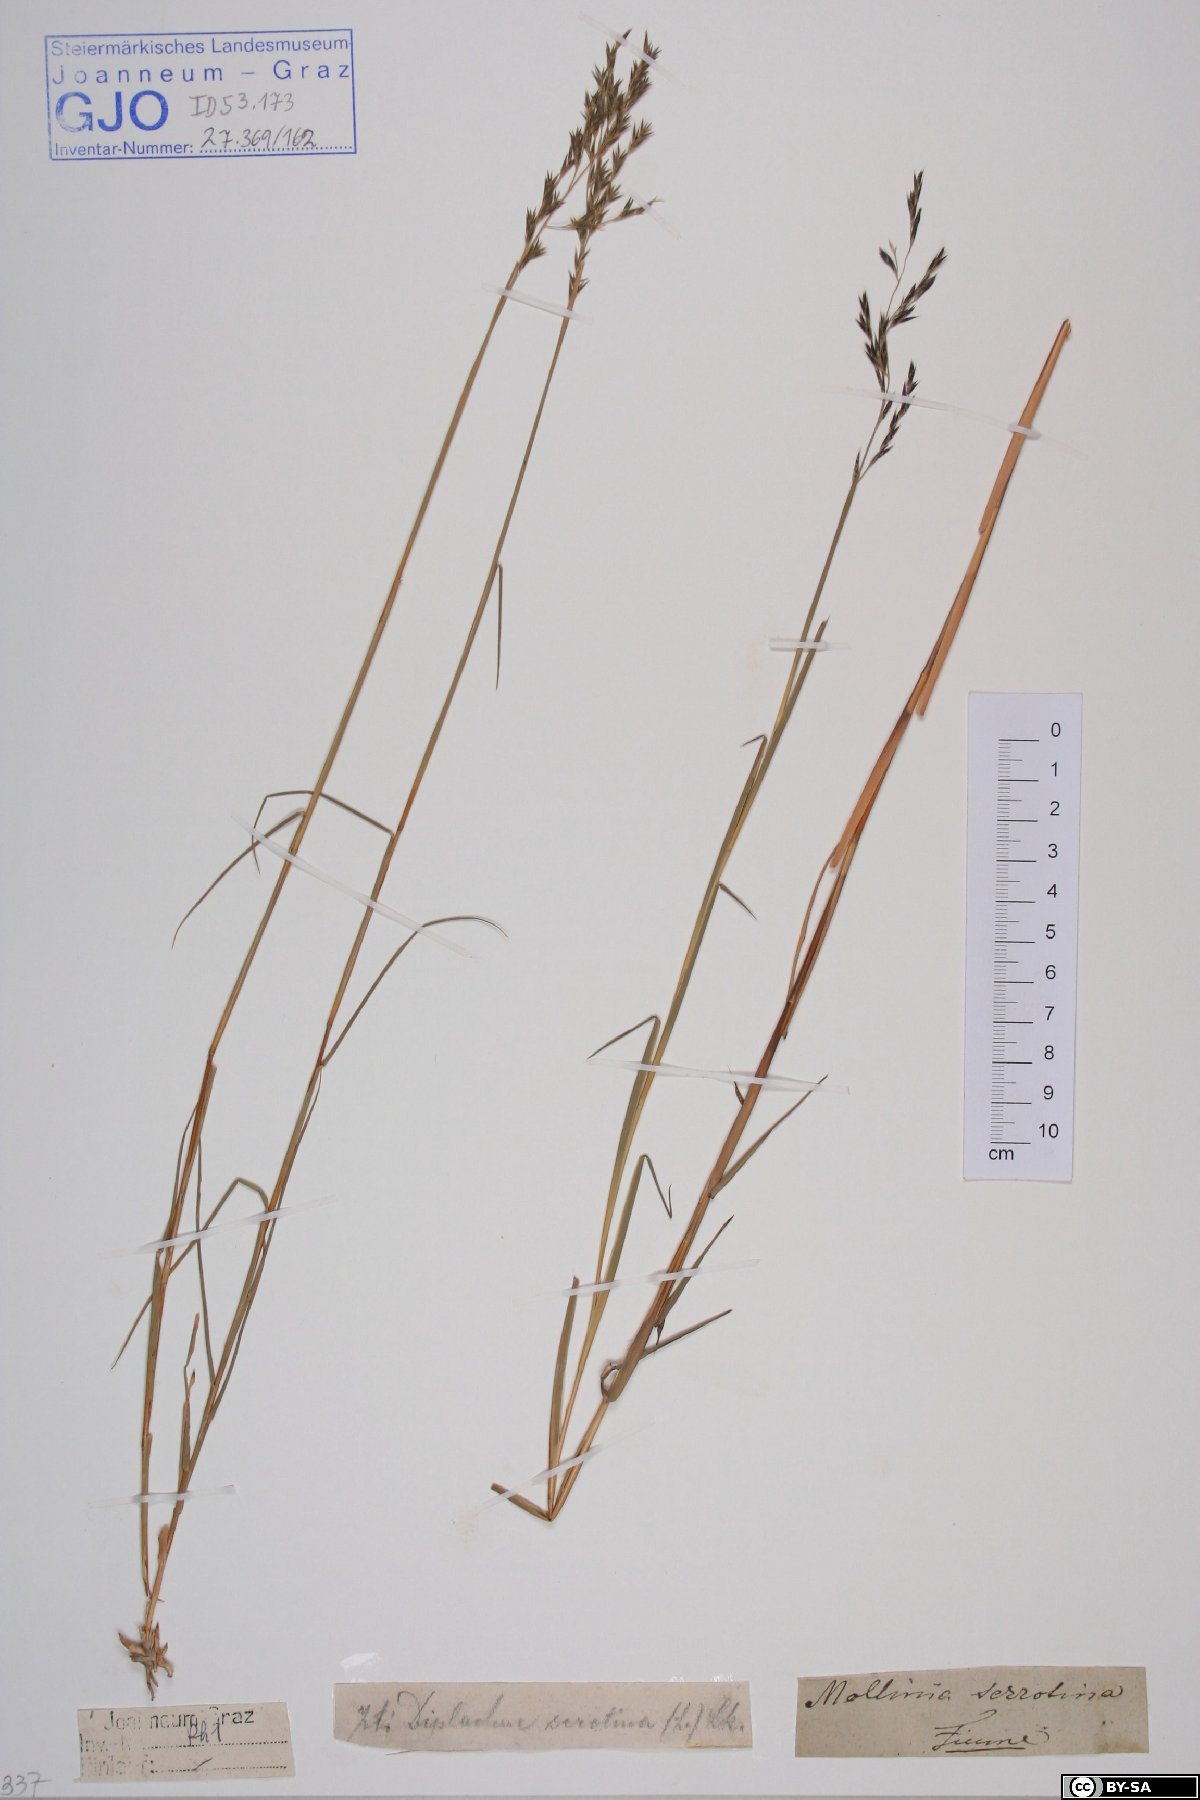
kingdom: Plantae
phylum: Tracheophyta
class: Liliopsida
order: Poales
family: Poaceae
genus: Cleistogenes
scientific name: Cleistogenes serotina
